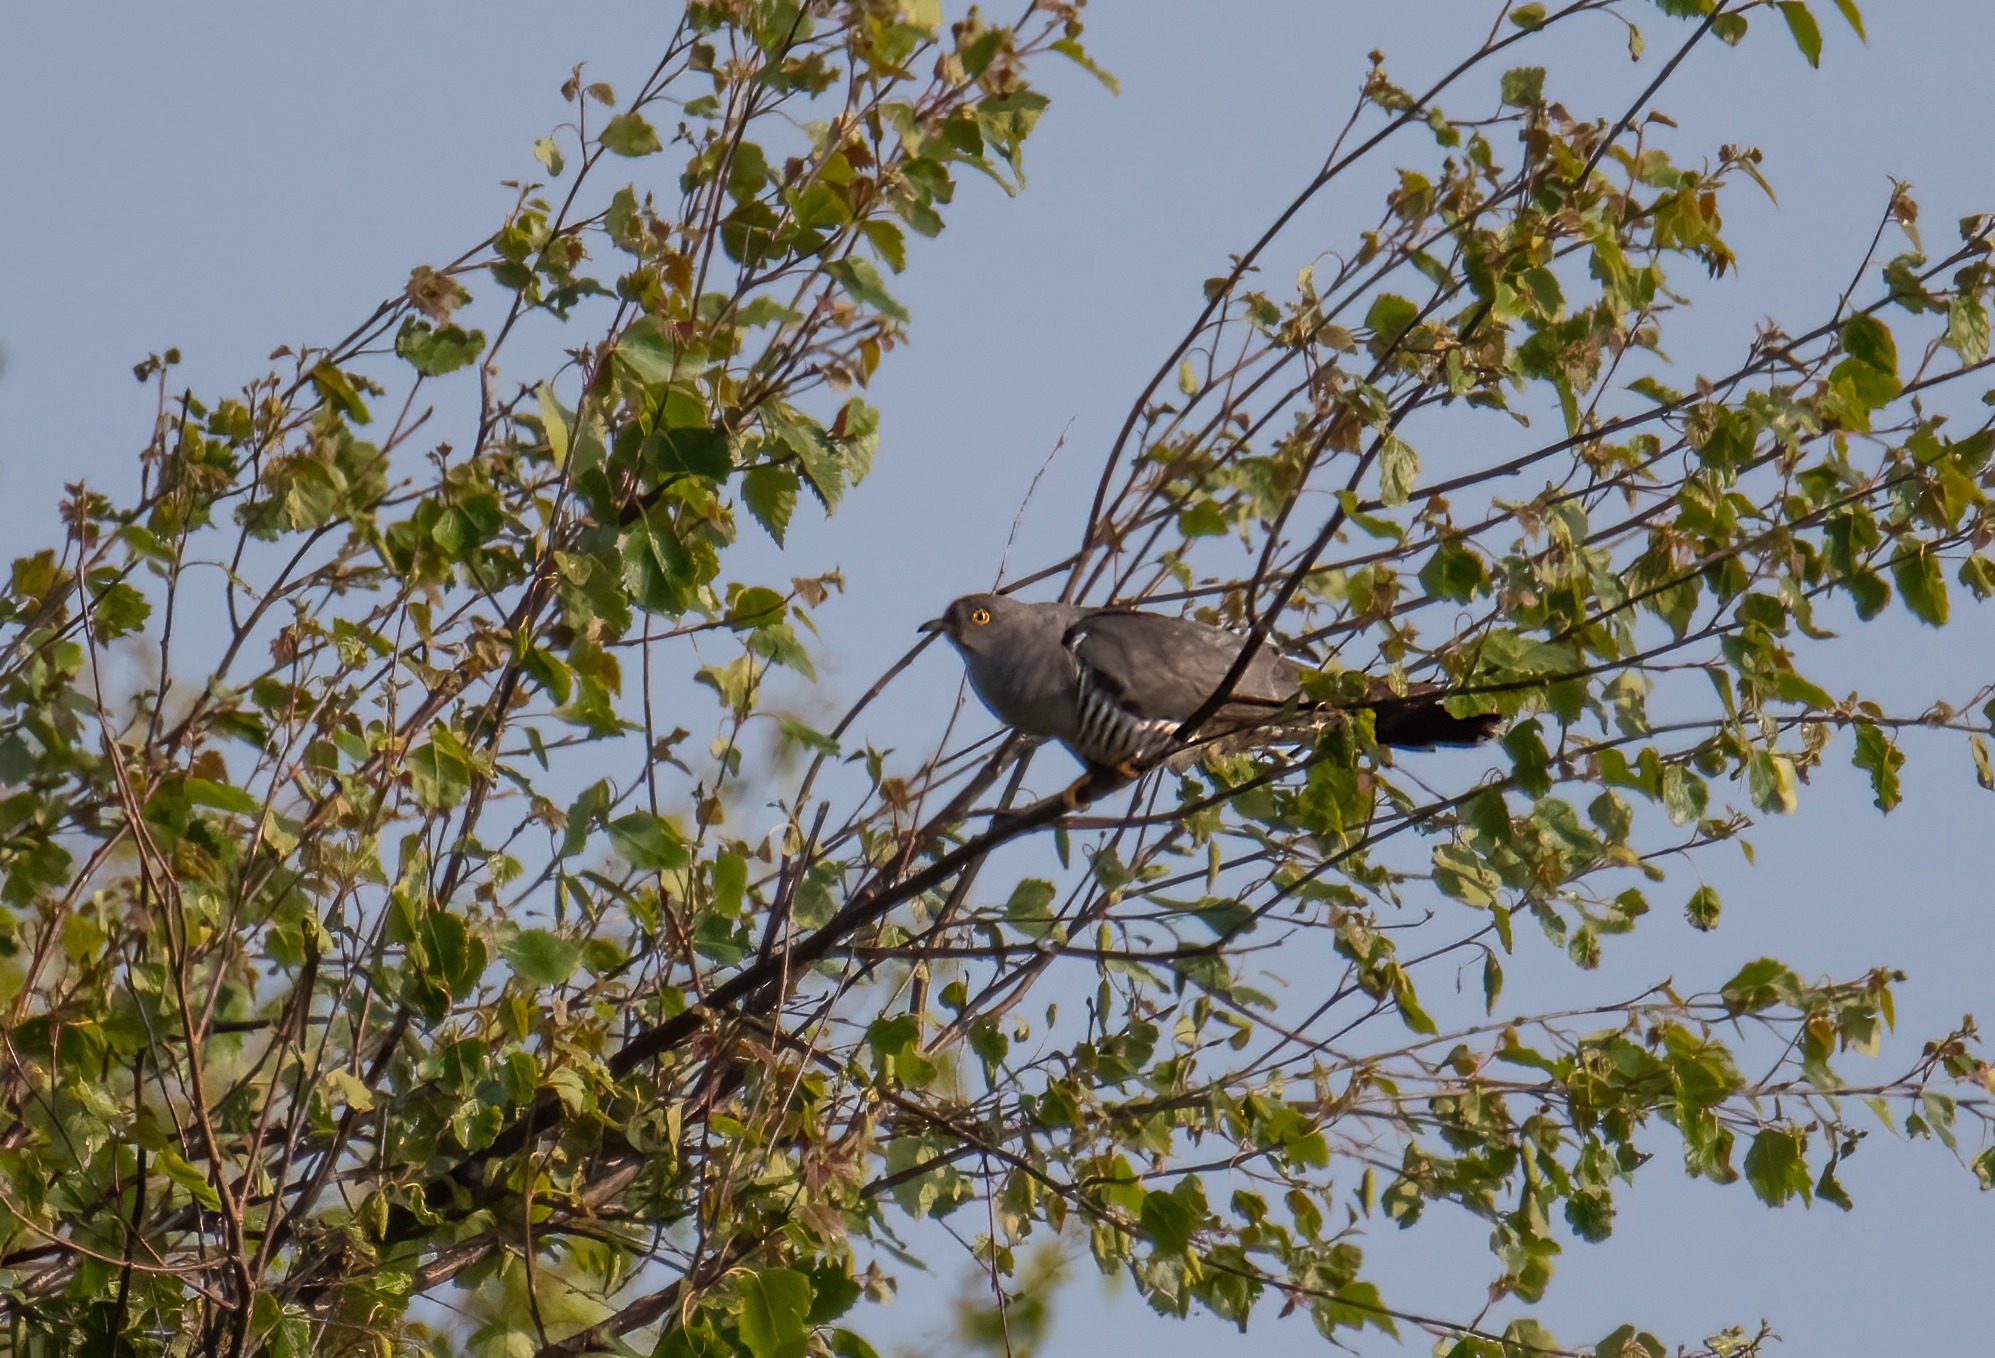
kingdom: Animalia
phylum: Chordata
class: Aves
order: Cuculiformes
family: Cuculidae
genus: Cuculus
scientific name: Cuculus canorus
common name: Gøg
